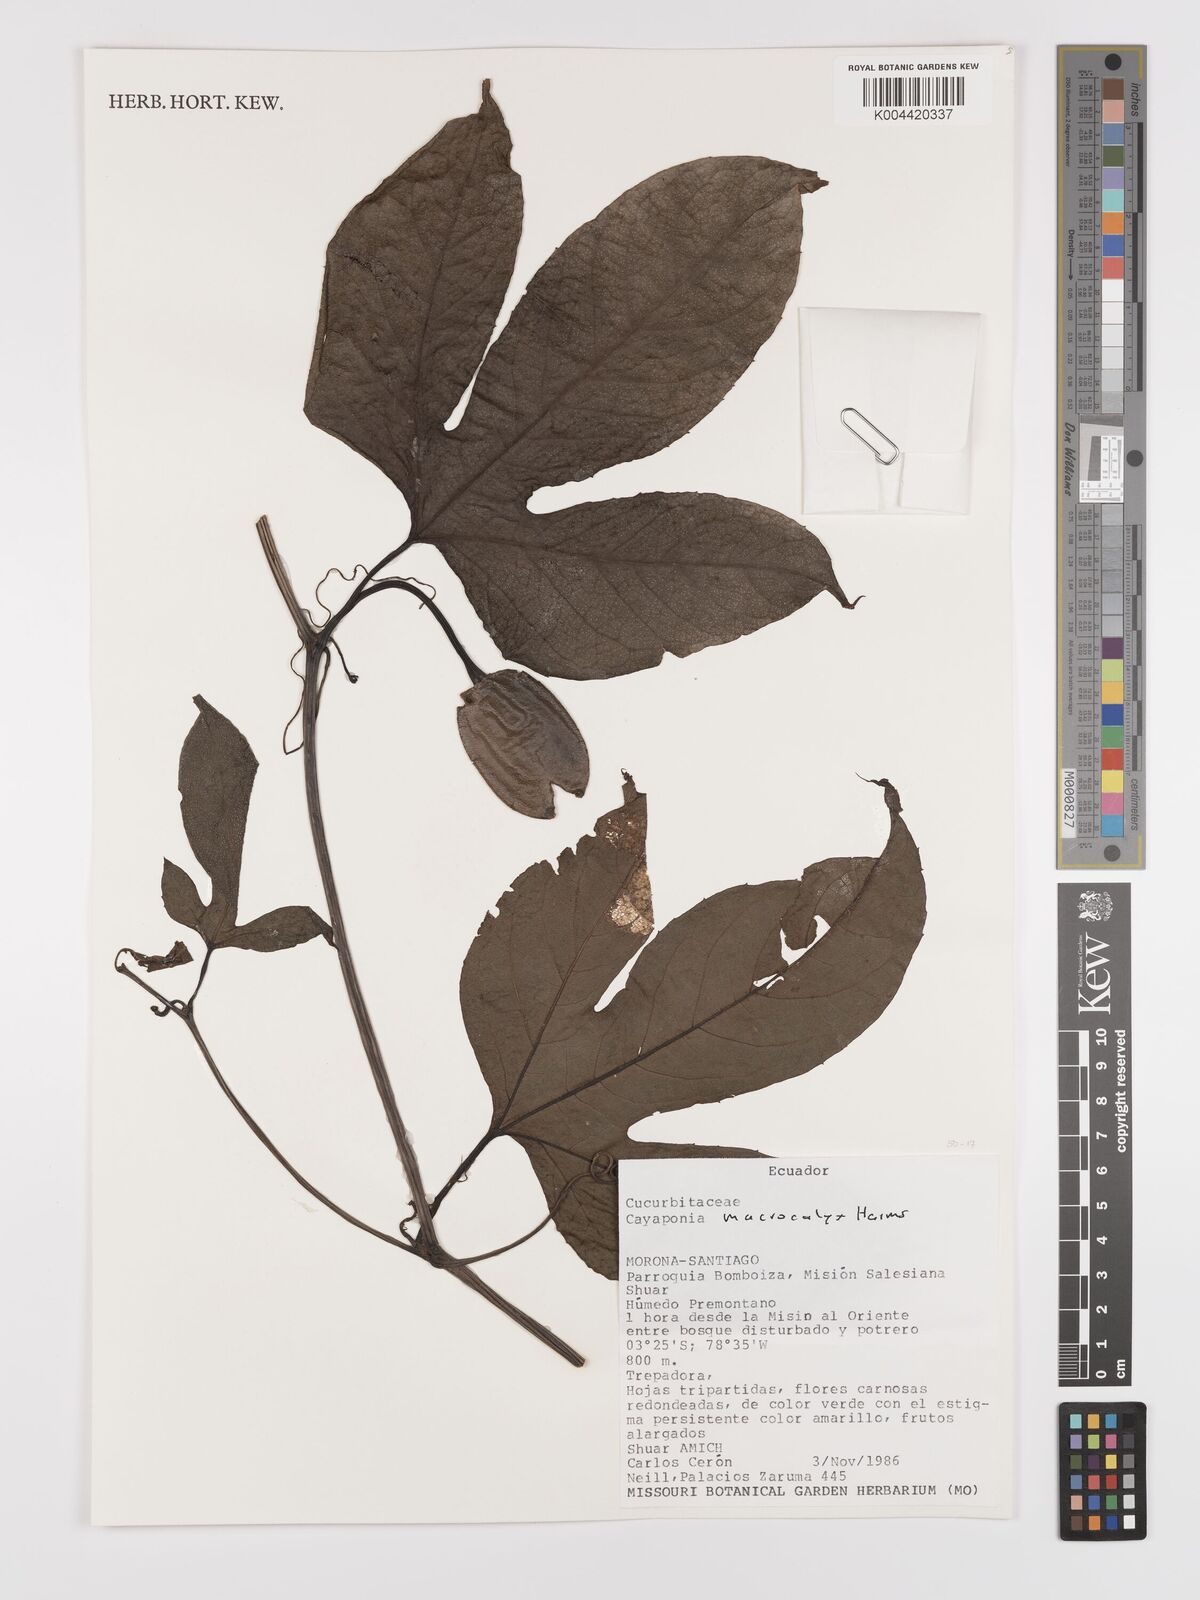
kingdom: Plantae
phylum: Tracheophyta
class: Magnoliopsida
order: Cucurbitales
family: Cucurbitaceae
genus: Cayaponia
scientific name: Cayaponia macrocalyx
